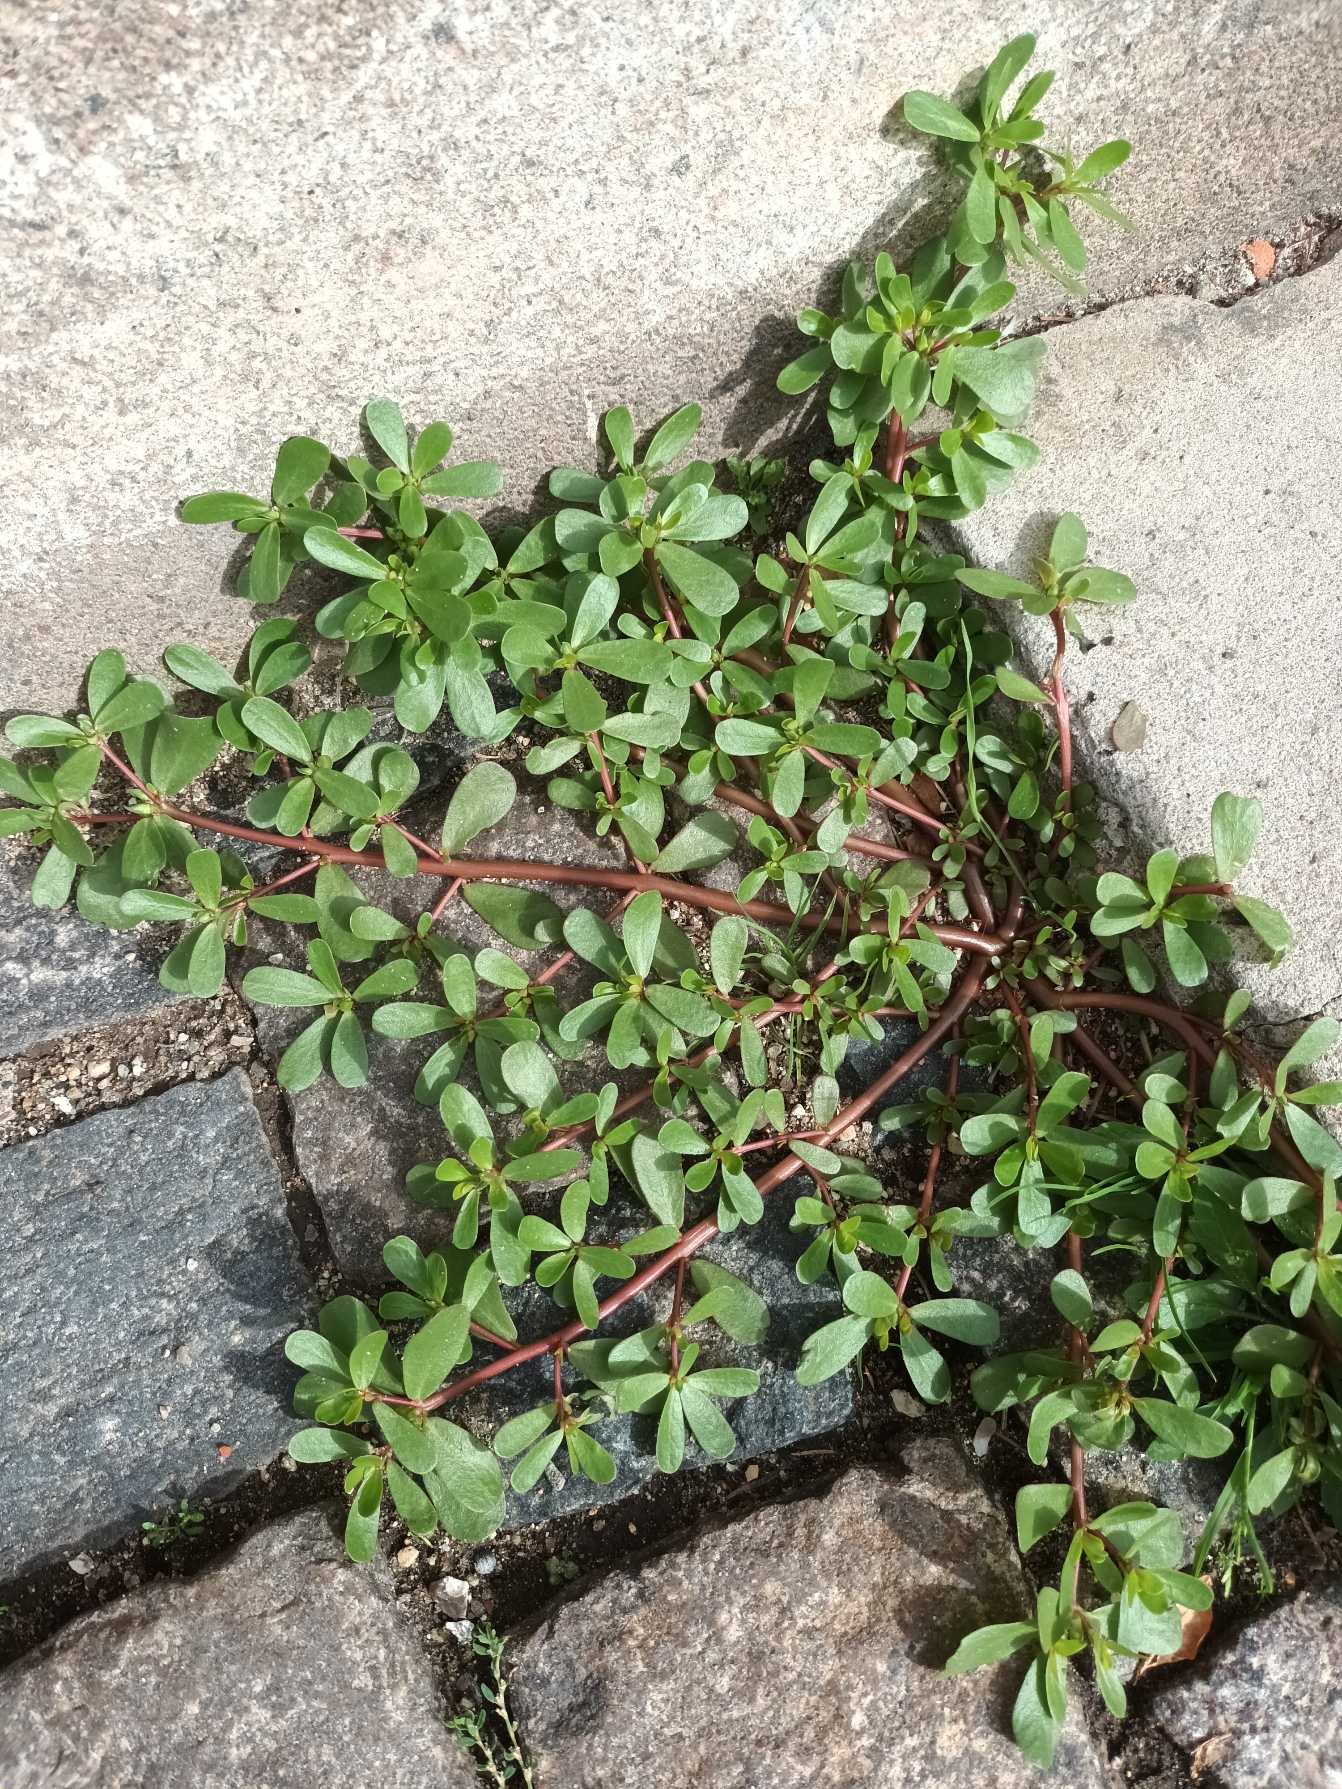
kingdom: Plantae
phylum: Tracheophyta
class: Magnoliopsida
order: Caryophyllales
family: Portulacaceae
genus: Portulaca
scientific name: Portulaca oleracea
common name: Portulak
